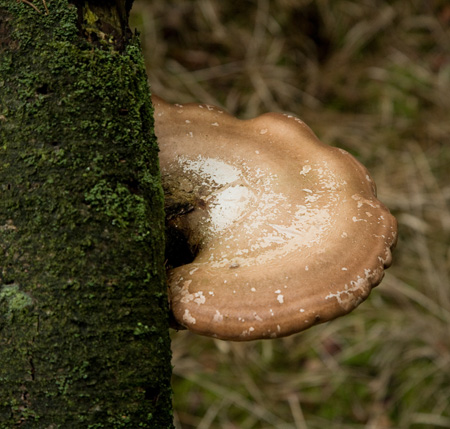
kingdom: Fungi
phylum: Basidiomycota
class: Agaricomycetes
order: Polyporales
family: Fomitopsidaceae
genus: Fomitopsis
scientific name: Fomitopsis betulina
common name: birkeporesvamp
